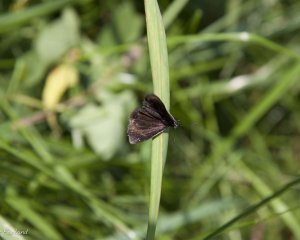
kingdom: Animalia
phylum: Arthropoda
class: Insecta
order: Lepidoptera
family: Hesperiidae
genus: Pholisora
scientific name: Pholisora catullus
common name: Common Sootywing
